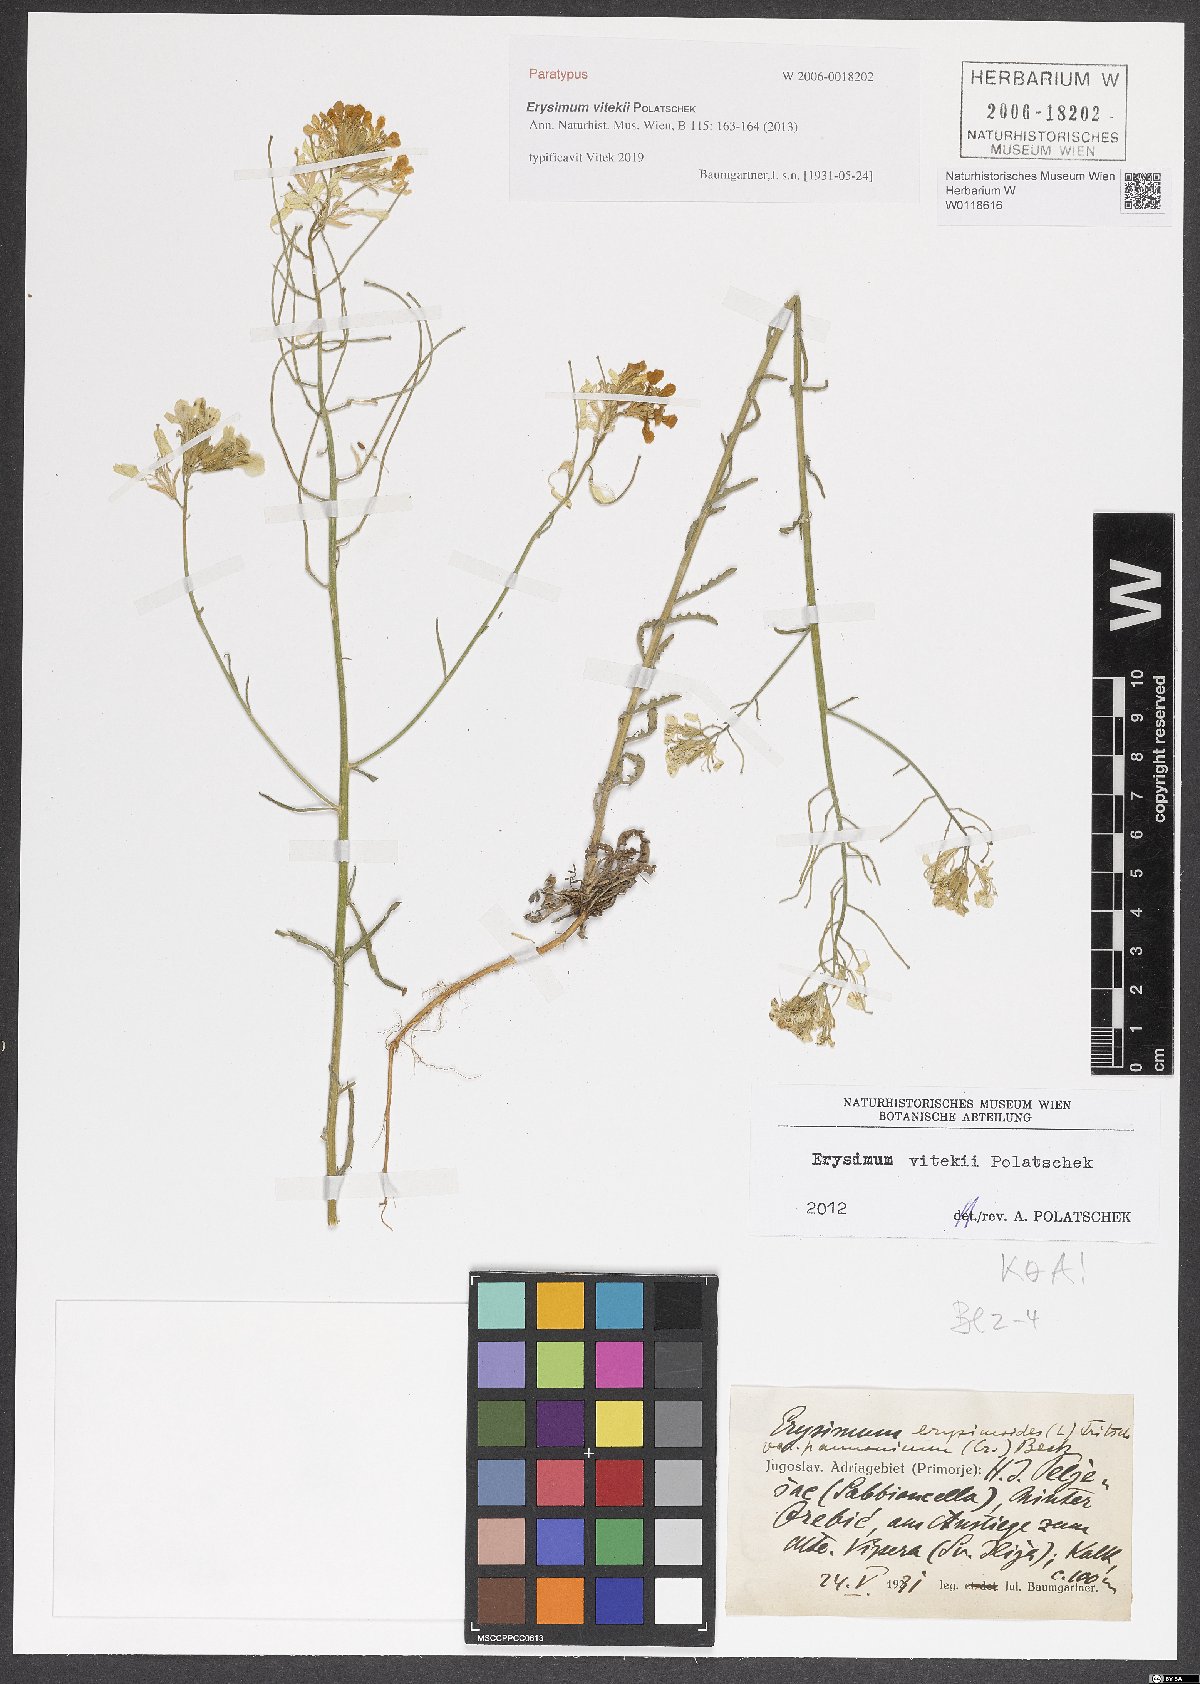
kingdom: Plantae
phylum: Tracheophyta
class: Magnoliopsida
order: Brassicales
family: Brassicaceae
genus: Erysimum
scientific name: Erysimum vitekii
